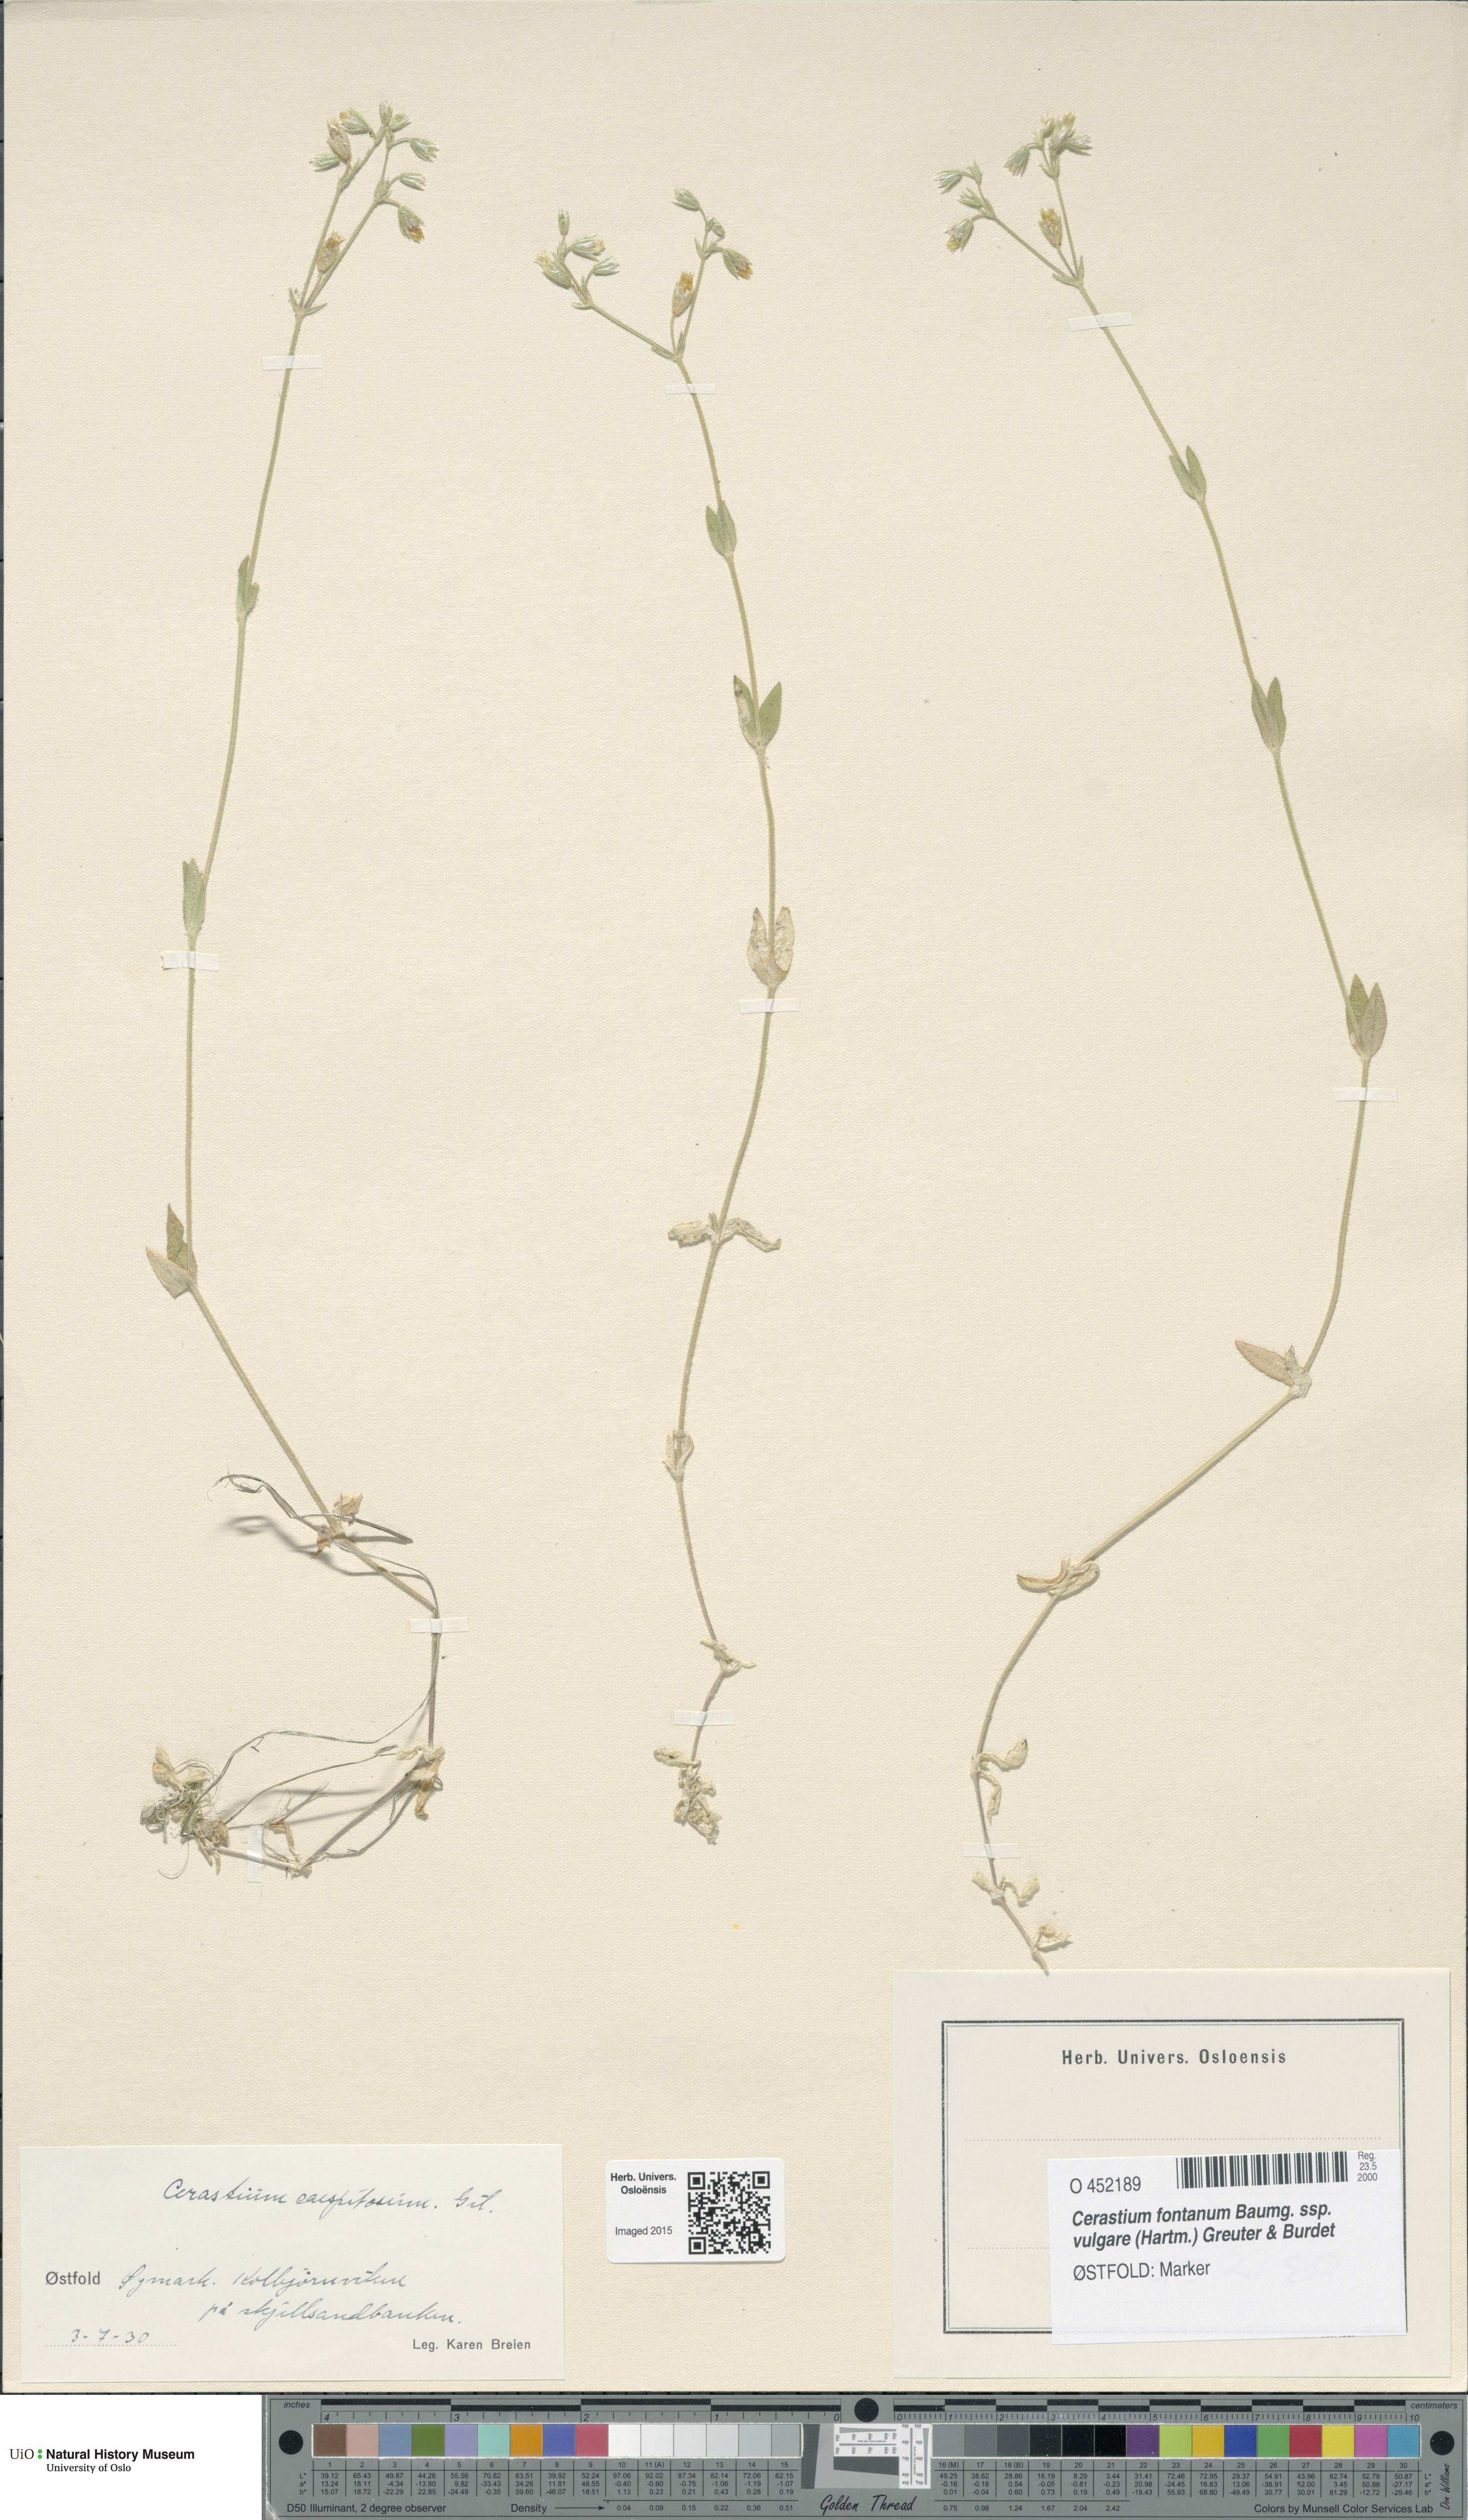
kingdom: Plantae
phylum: Tracheophyta
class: Magnoliopsida
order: Caryophyllales
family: Caryophyllaceae
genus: Cerastium
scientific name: Cerastium holosteoides
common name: Big chickweed
